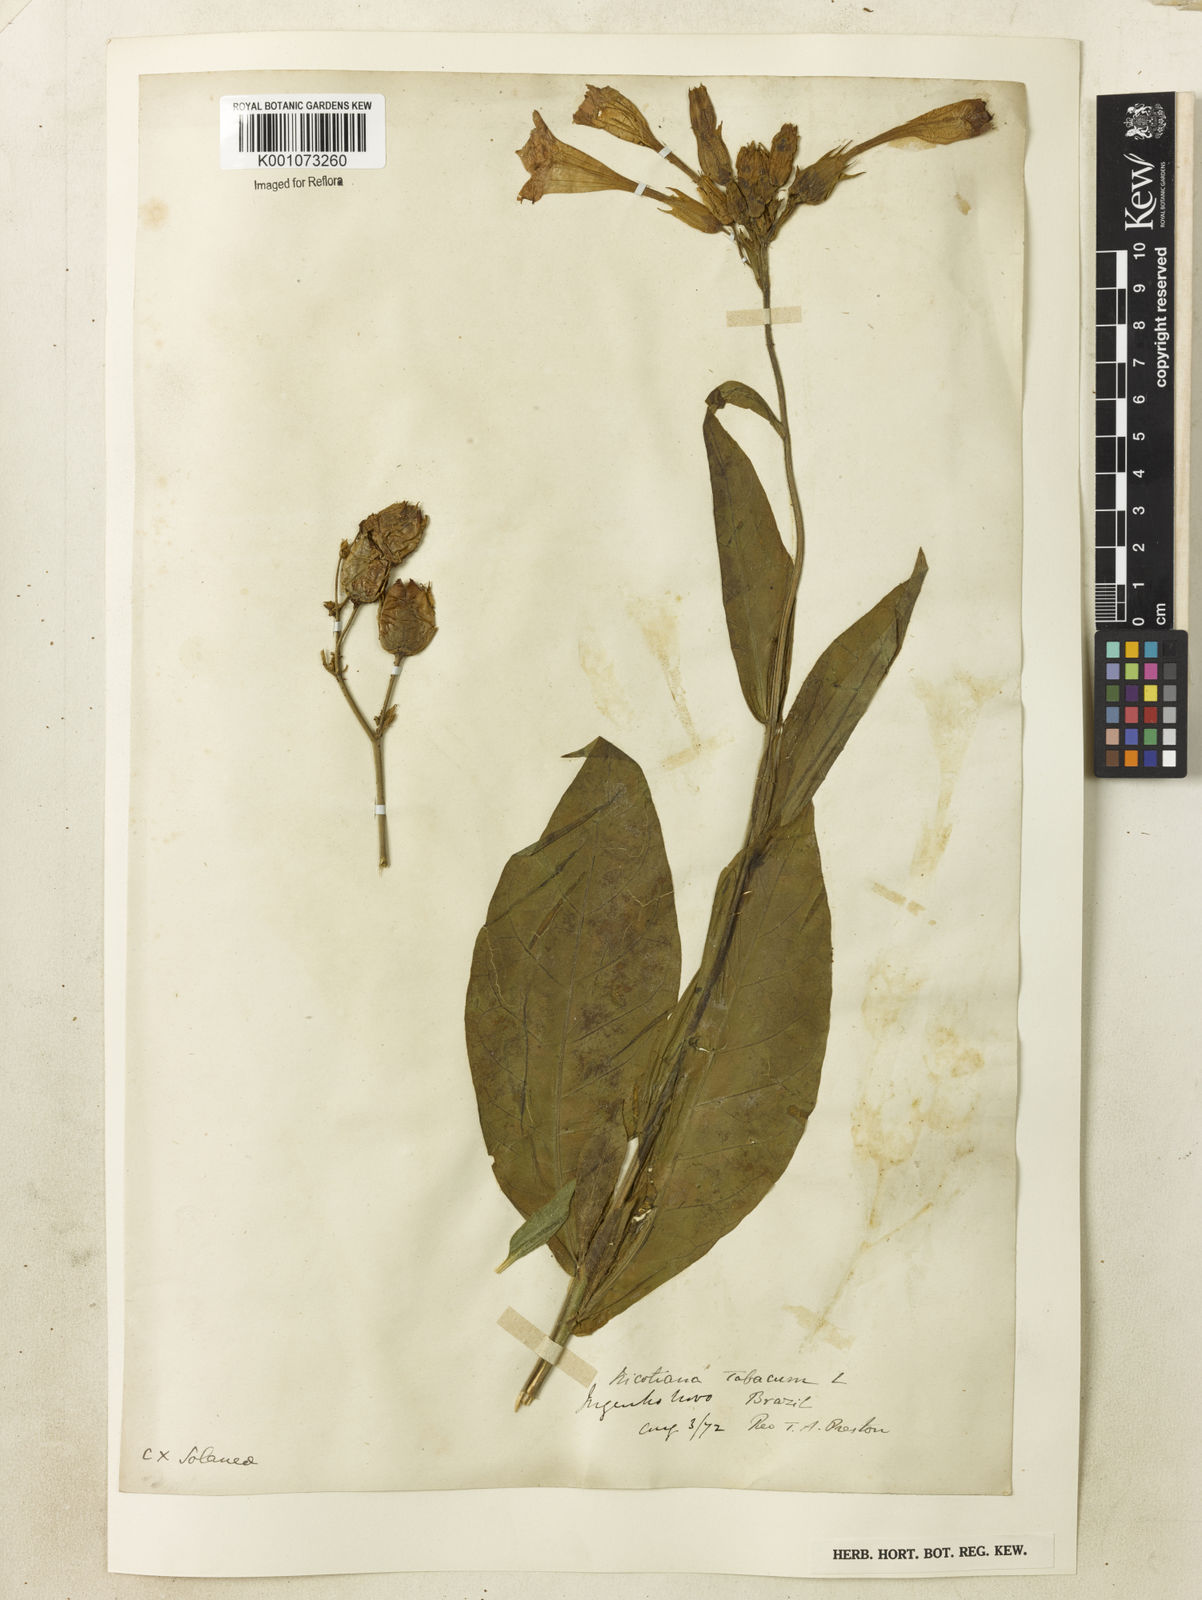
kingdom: Plantae
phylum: Tracheophyta
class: Magnoliopsida
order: Solanales
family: Solanaceae
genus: Nicotiana
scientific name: Nicotiana tabacum
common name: Tobacco
